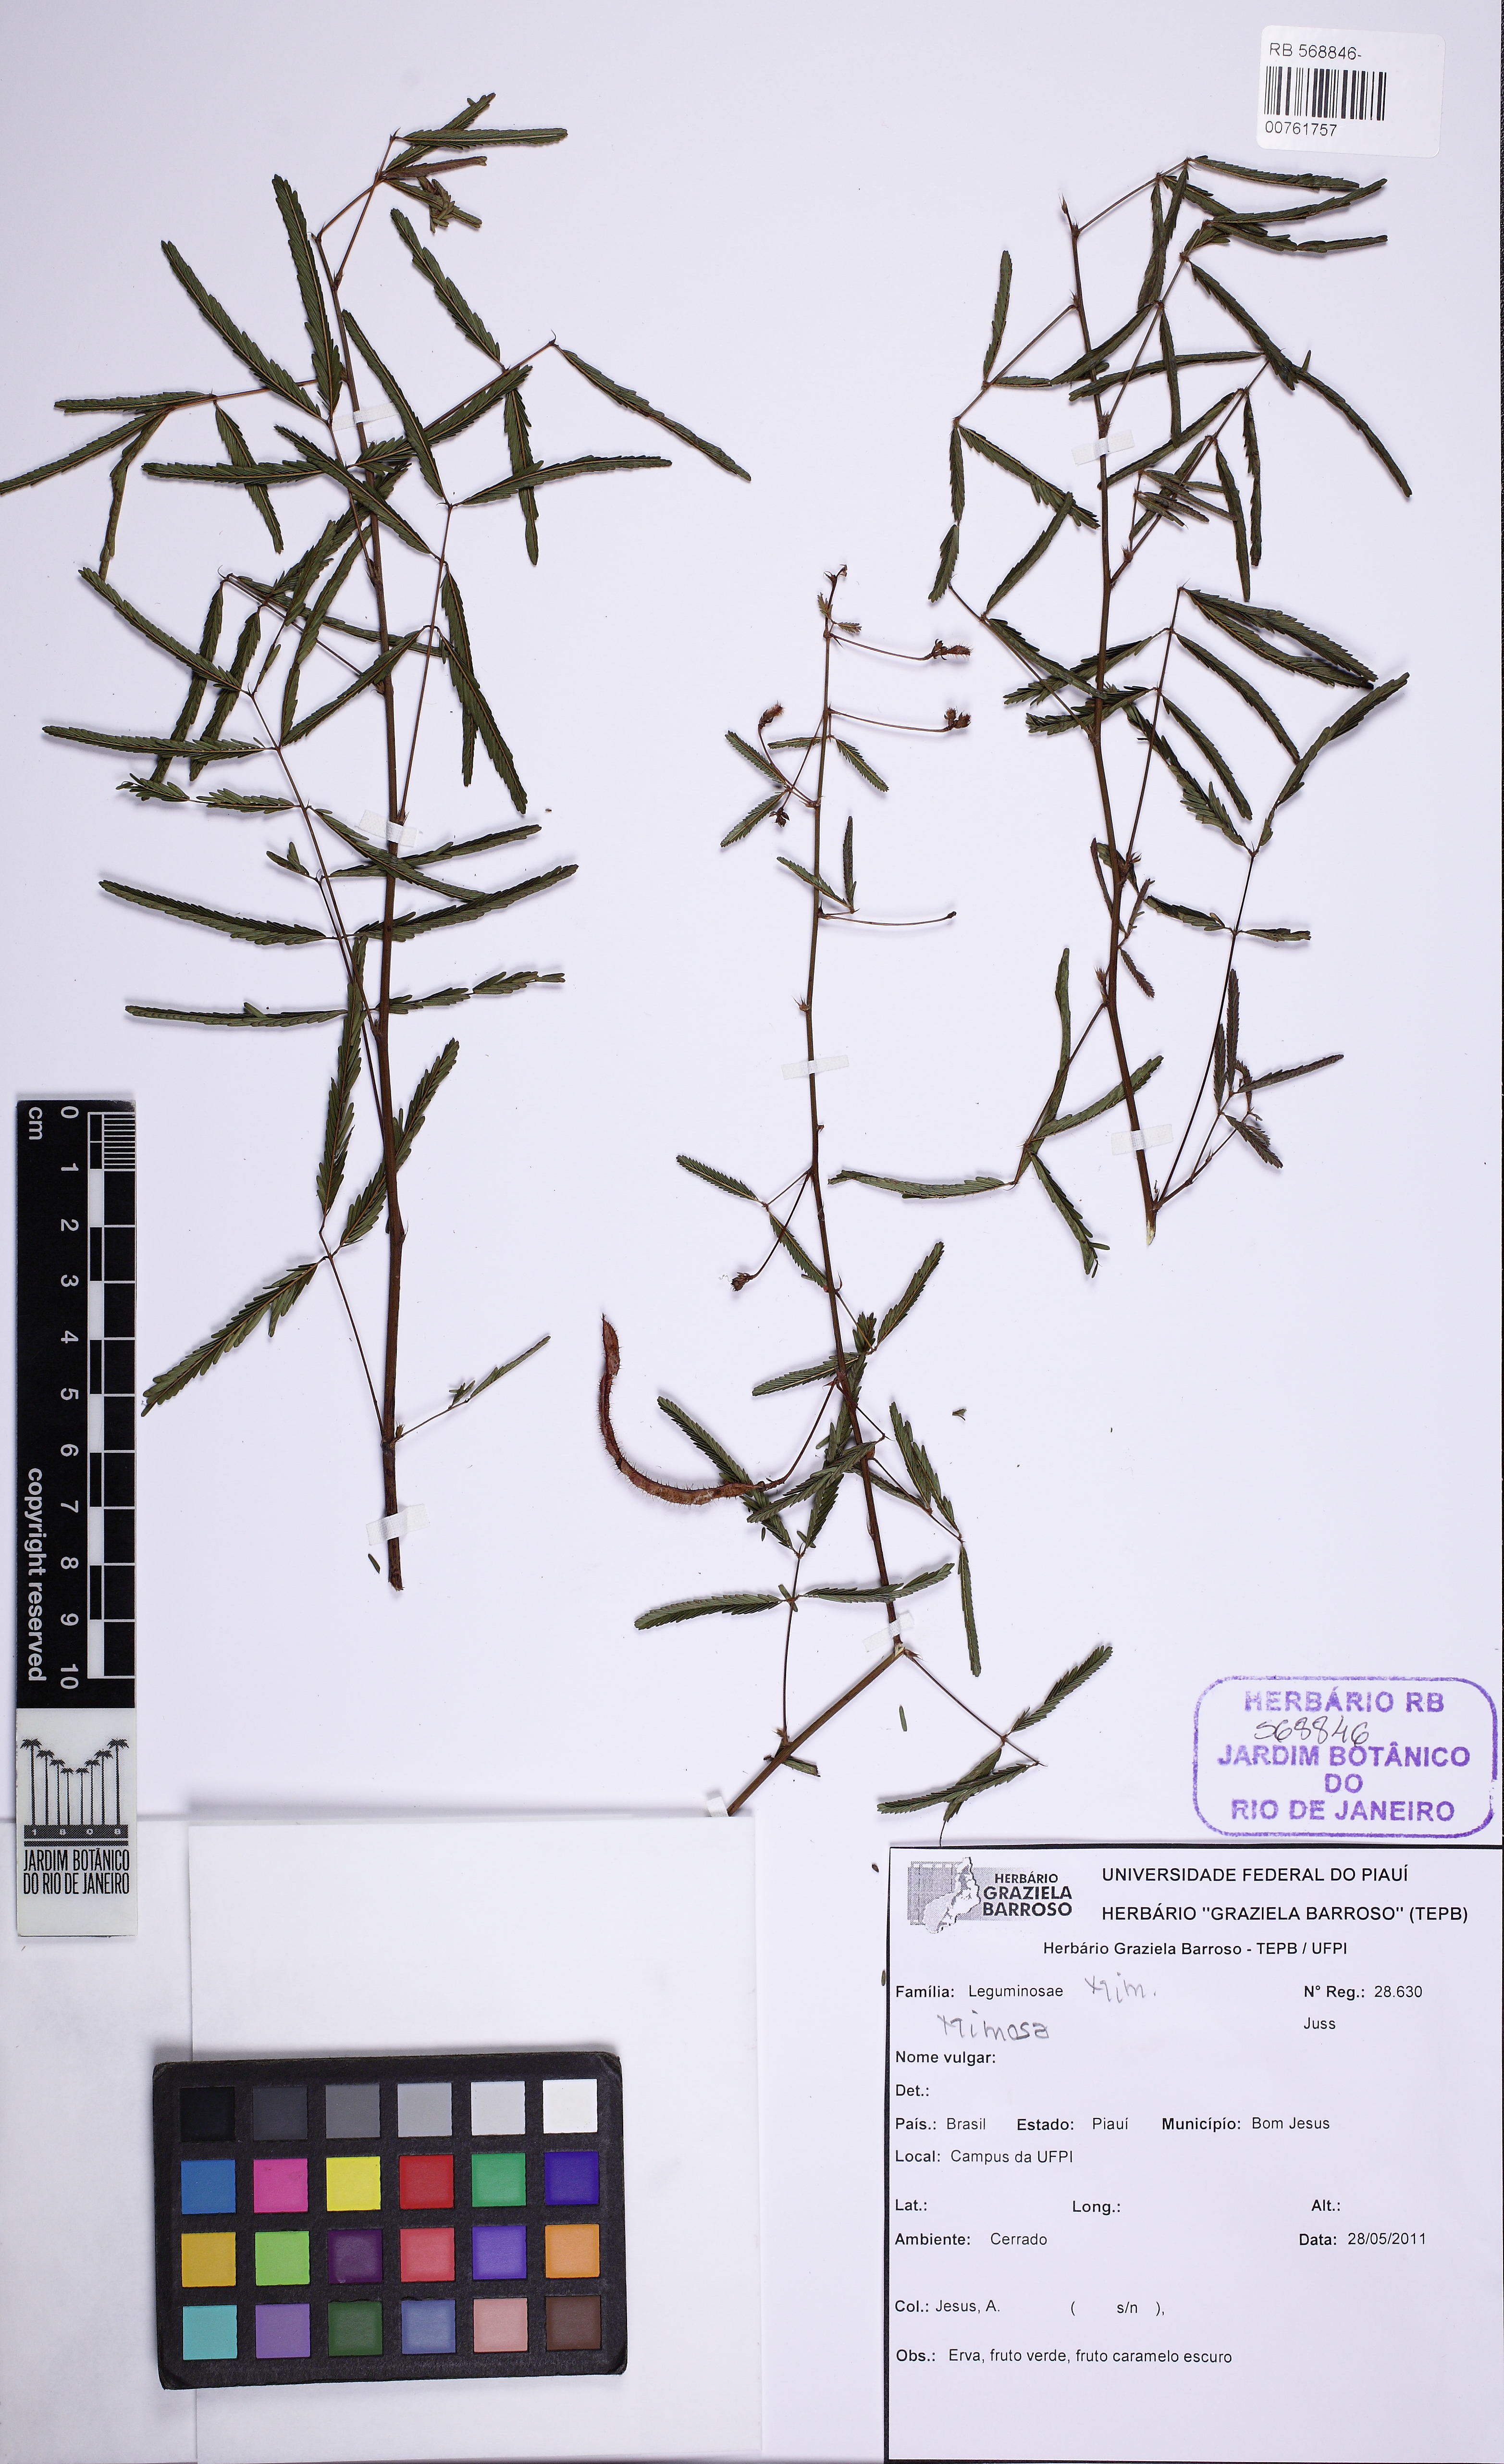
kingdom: Plantae
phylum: Tracheophyta
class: Magnoliopsida
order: Fabales
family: Fabaceae
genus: Mimosa
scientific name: Mimosa
